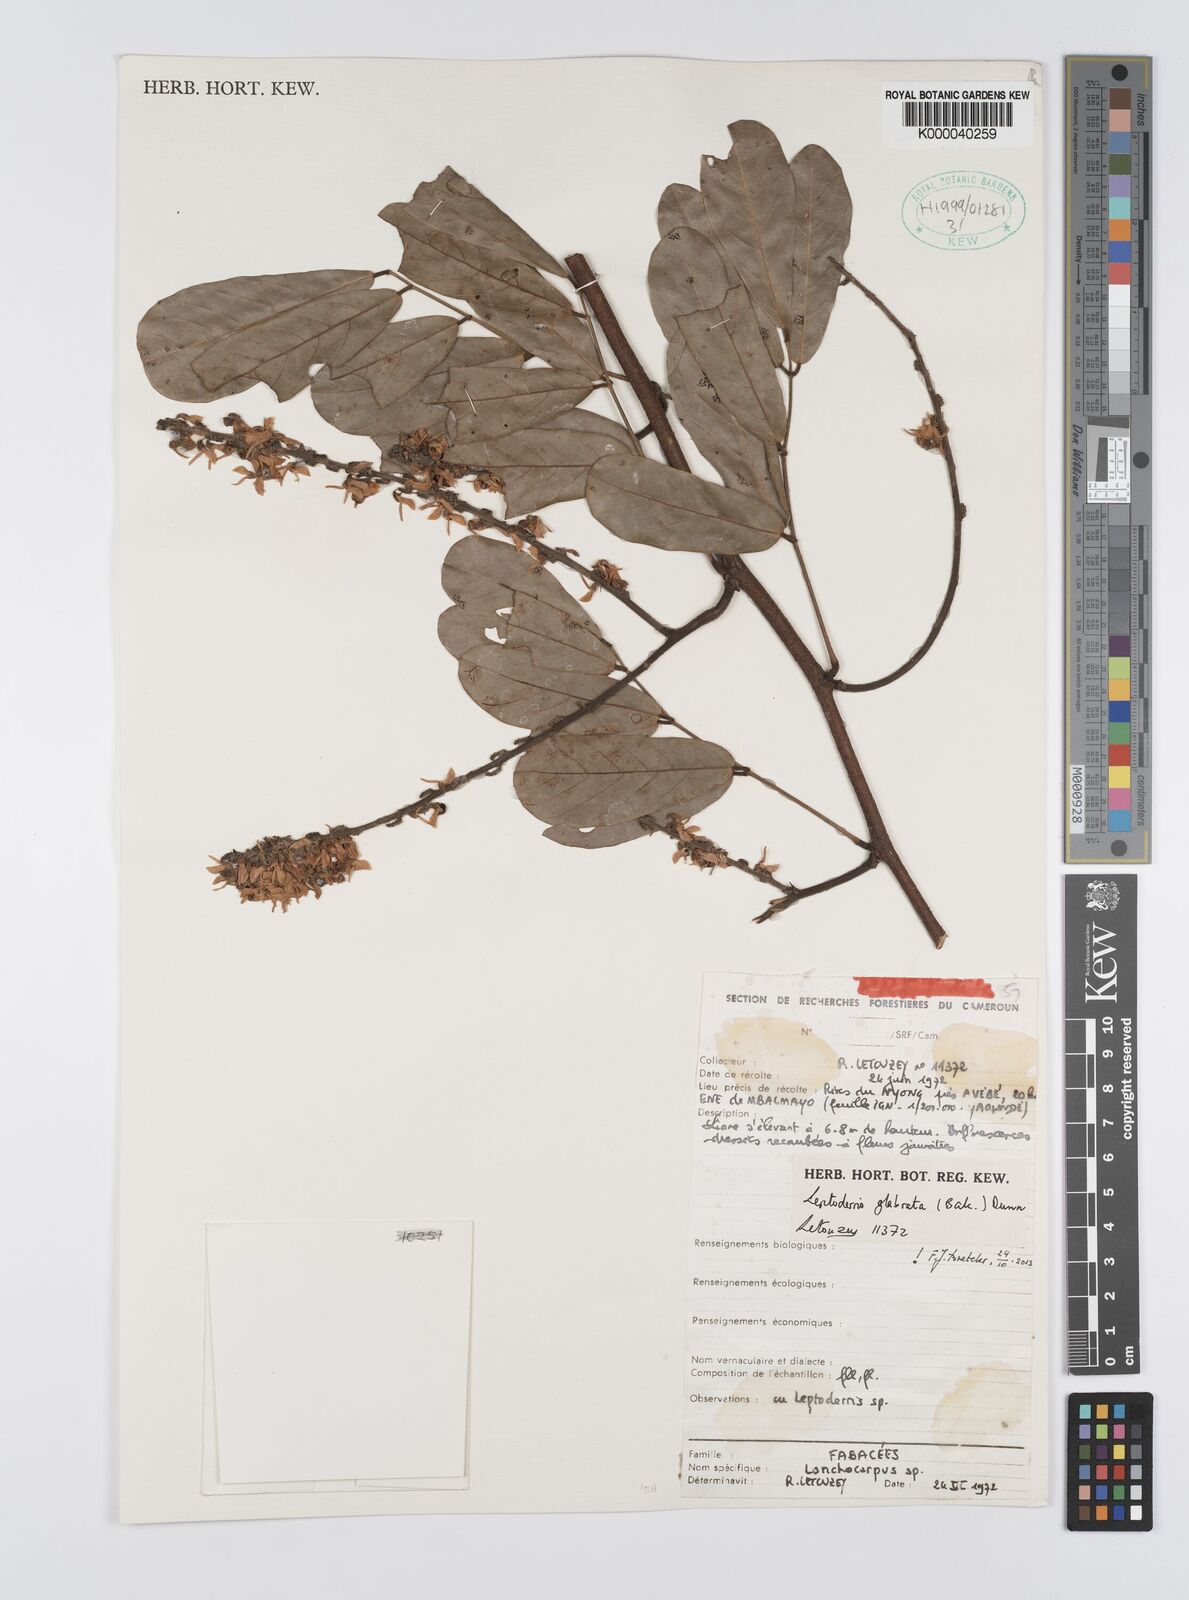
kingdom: Plantae
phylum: Tracheophyta
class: Magnoliopsida
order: Fabales
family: Fabaceae
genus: Leptoderris
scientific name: Leptoderris glabrata
